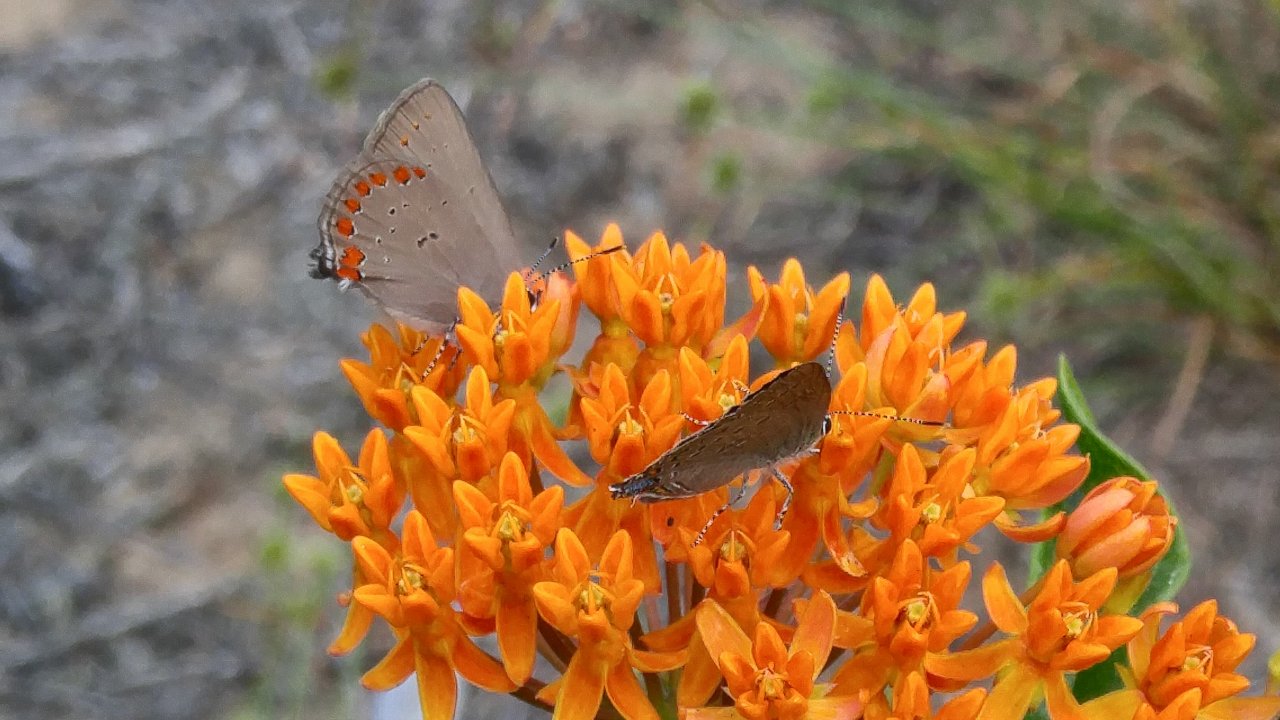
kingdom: Animalia
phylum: Arthropoda
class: Insecta
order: Lepidoptera
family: Lycaenidae
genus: Harkenclenus
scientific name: Harkenclenus titus
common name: Coral Hairstreak
